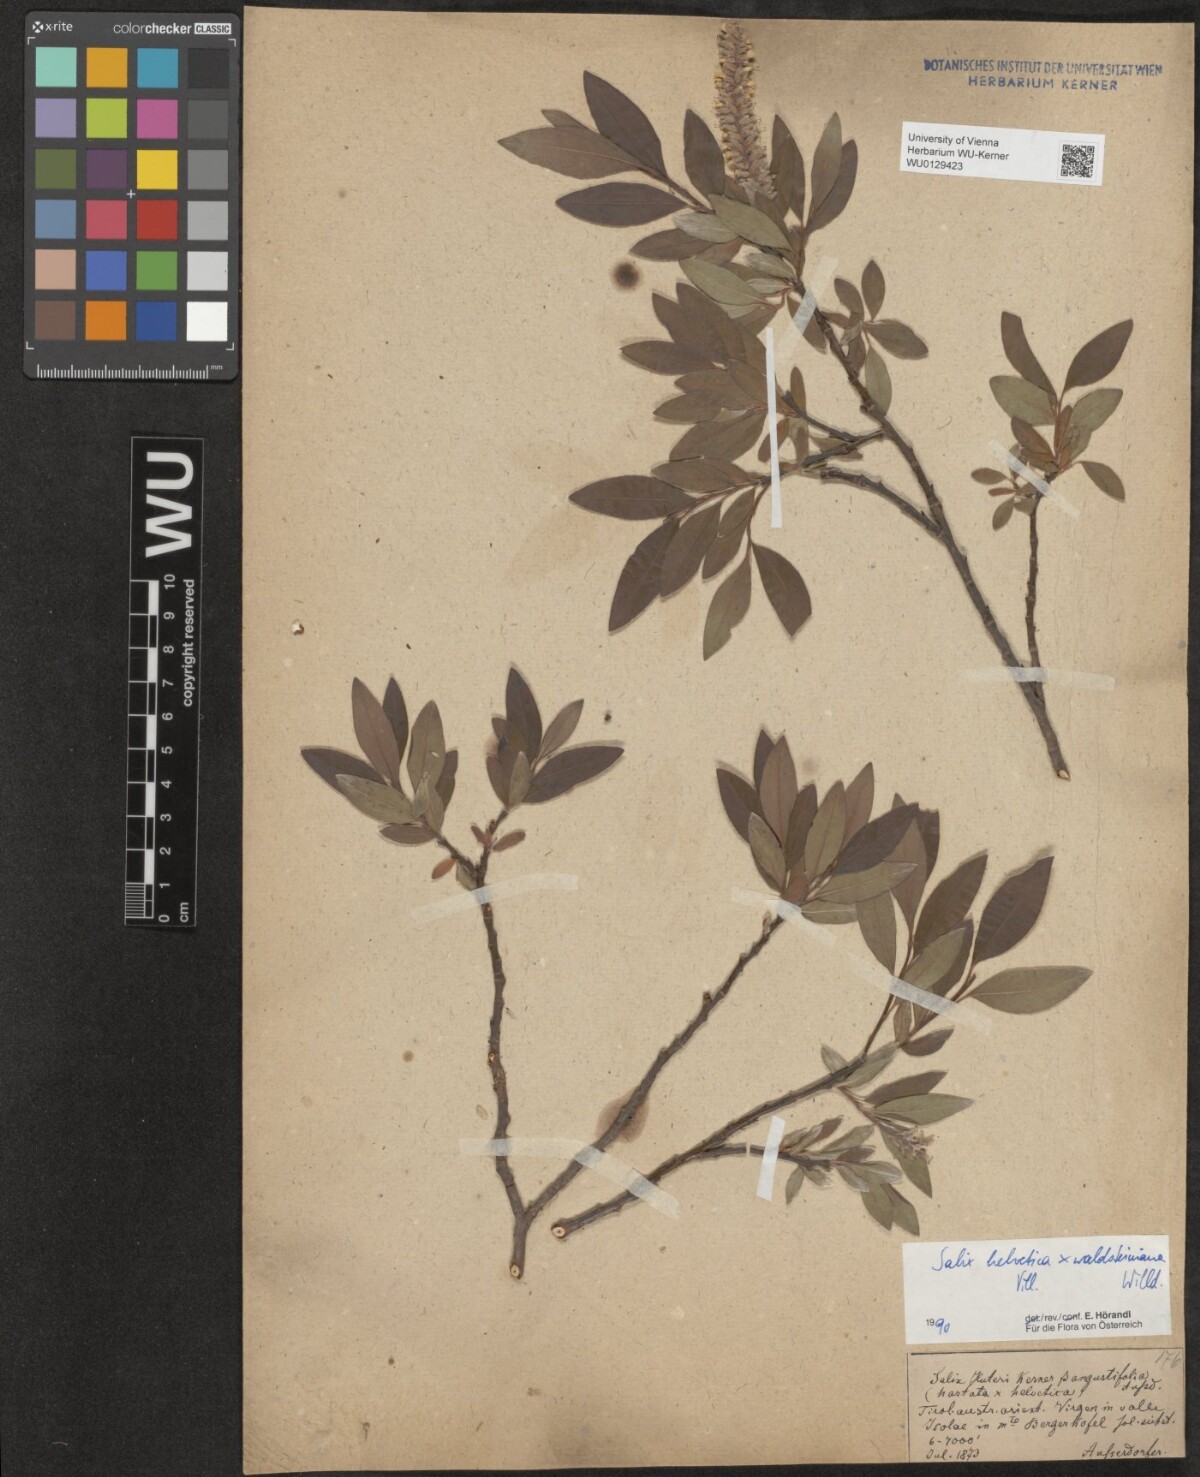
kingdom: Plantae
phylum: Tracheophyta
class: Magnoliopsida
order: Malpighiales
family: Salicaceae
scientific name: Salicaceae
